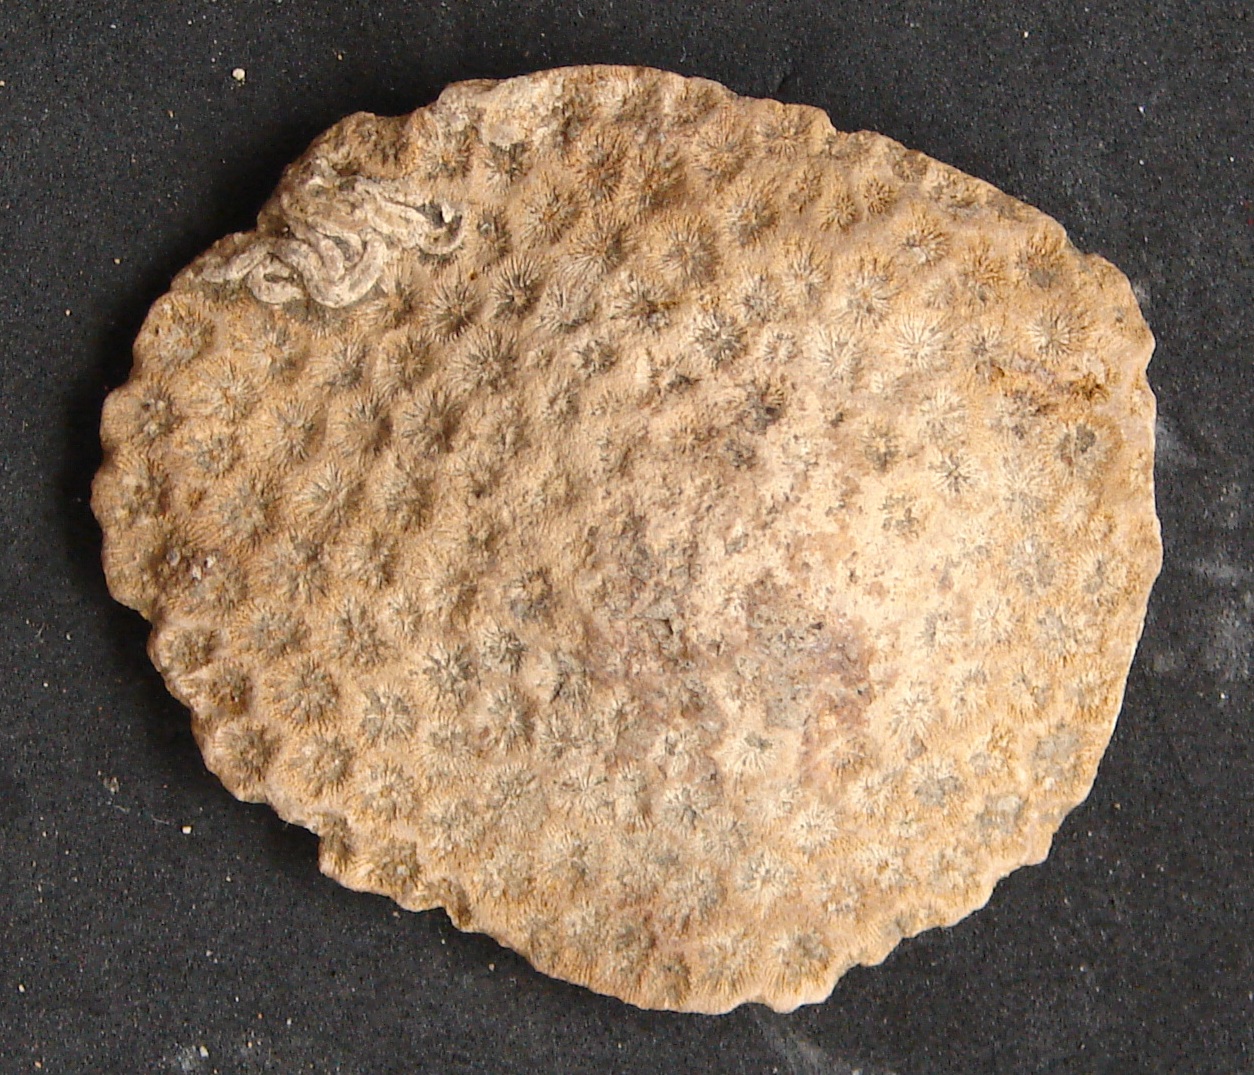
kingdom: Animalia
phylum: Cnidaria
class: Anthozoa
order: Scleractinia
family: Actinastreidae
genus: Stephanastrea
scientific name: Stephanastrea
